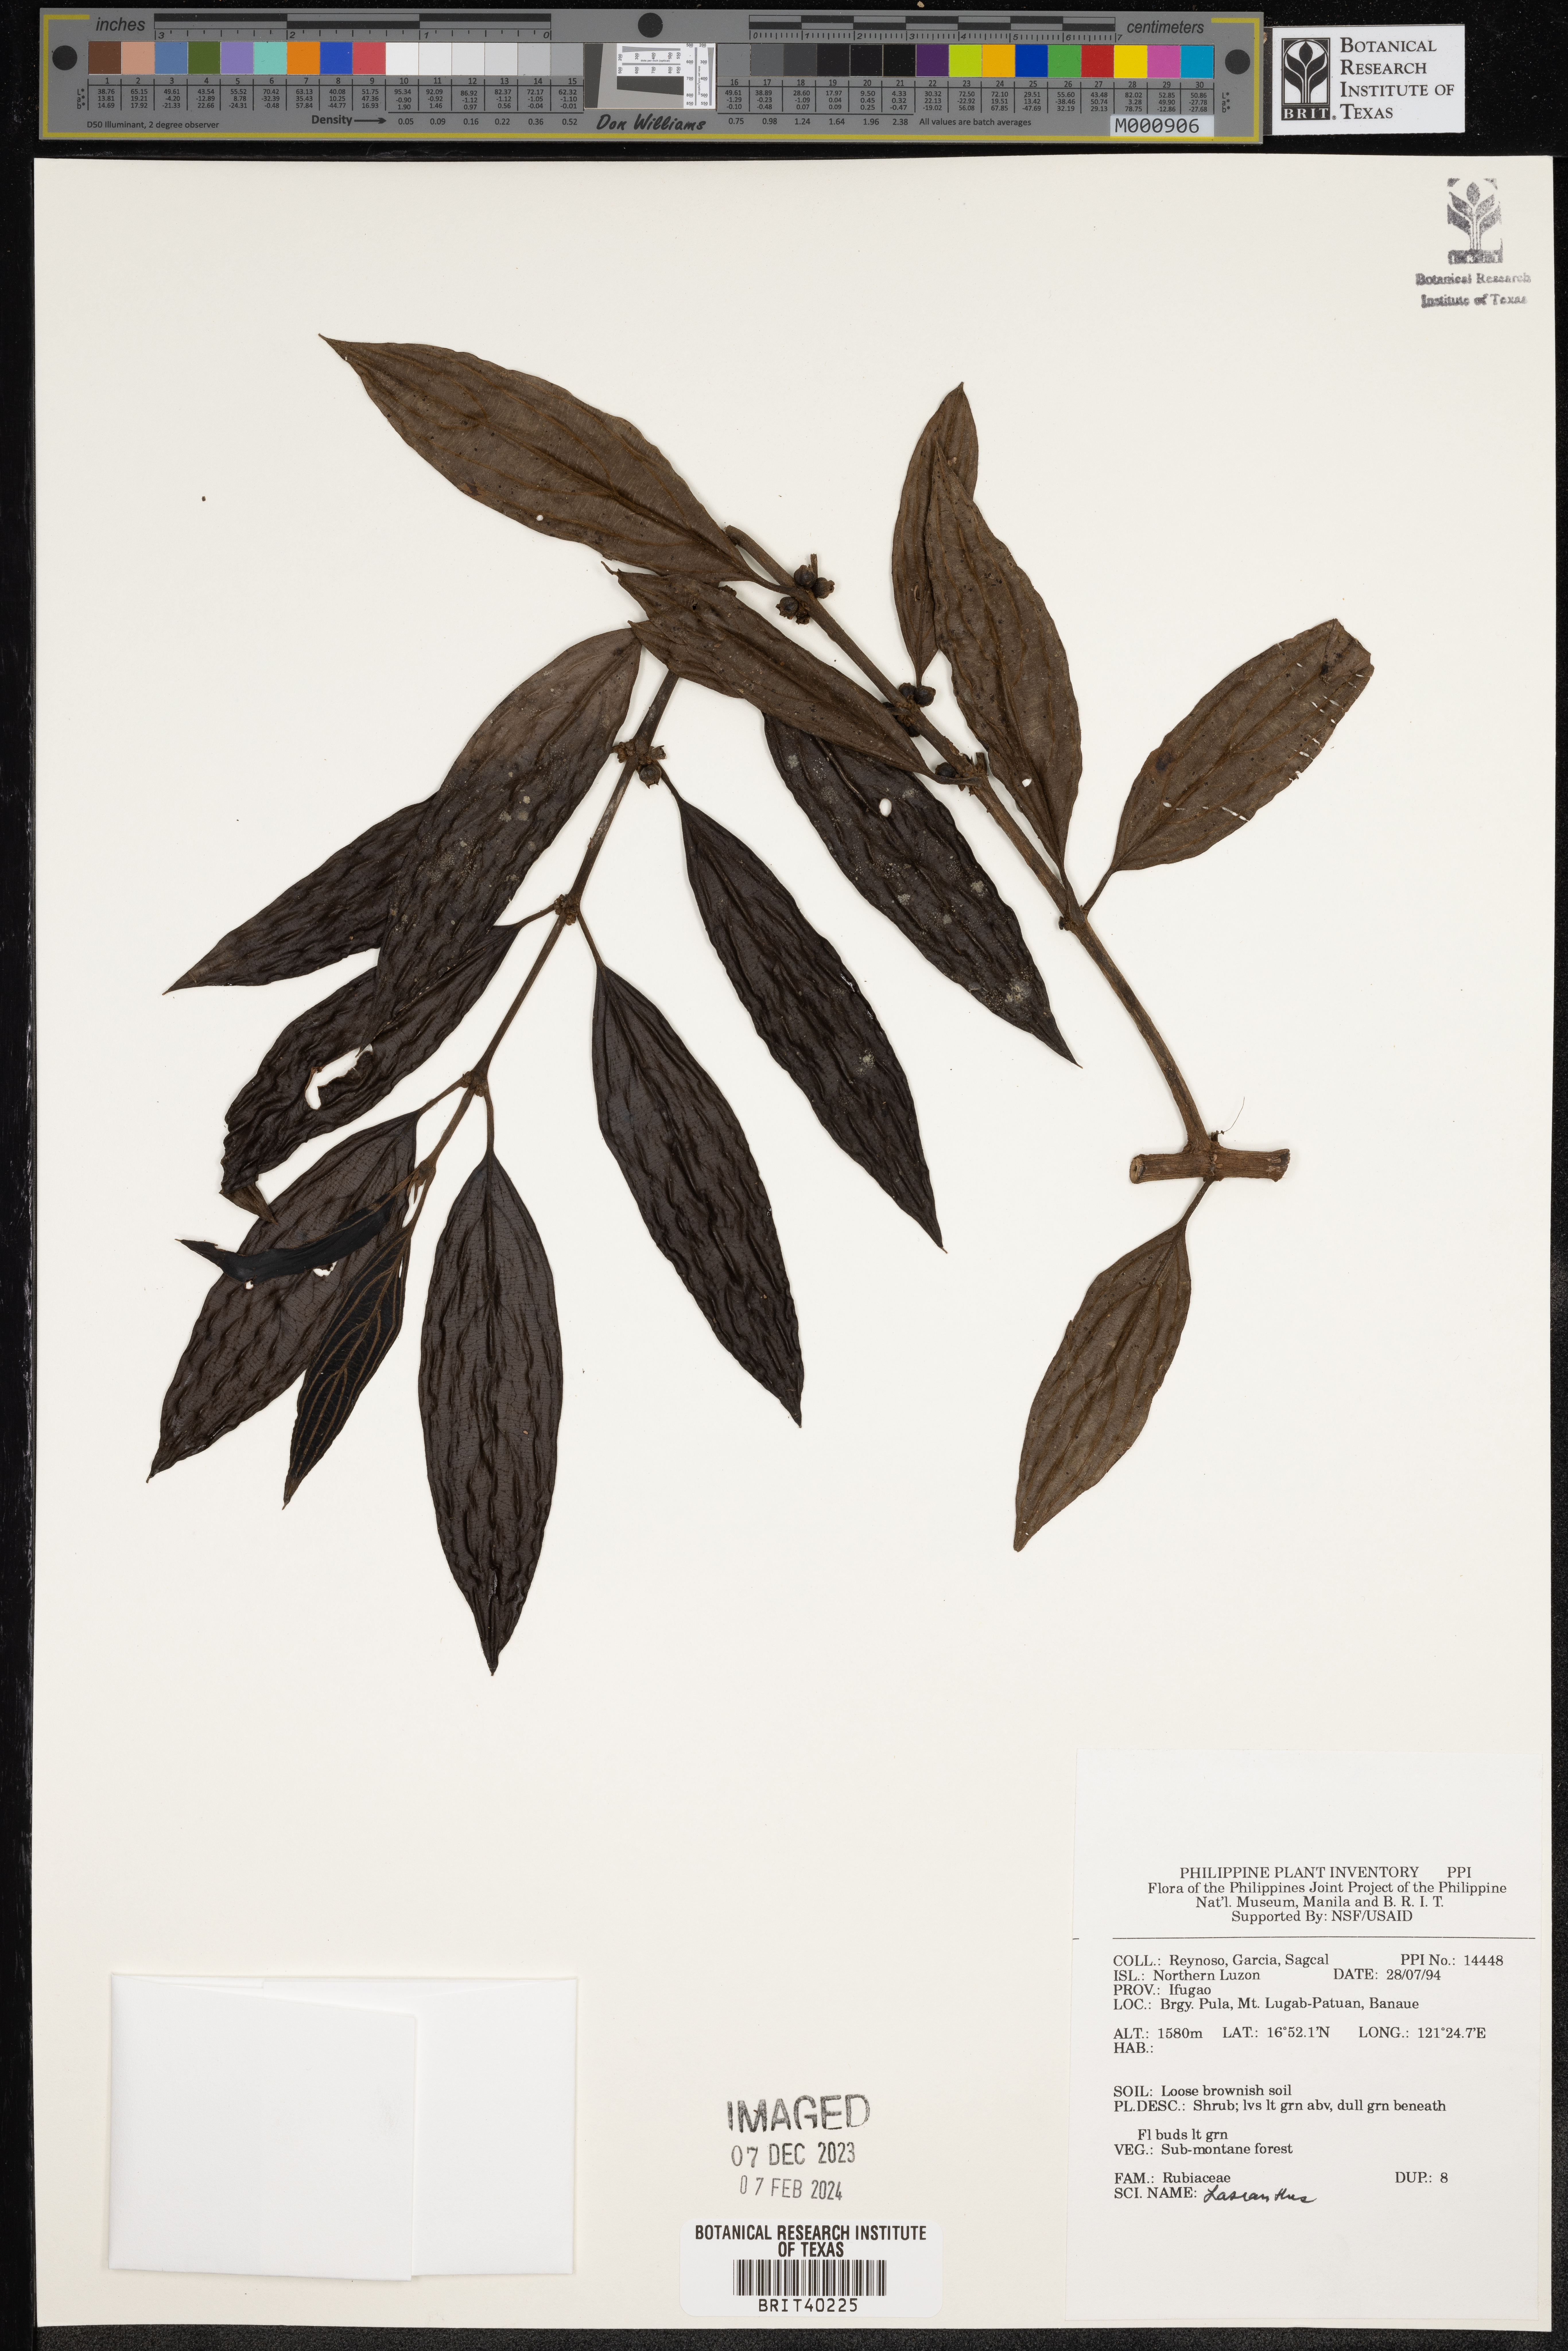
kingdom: Plantae
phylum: Tracheophyta
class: Magnoliopsida
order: Gentianales
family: Rubiaceae
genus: Lasianthus
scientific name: Lasianthus
